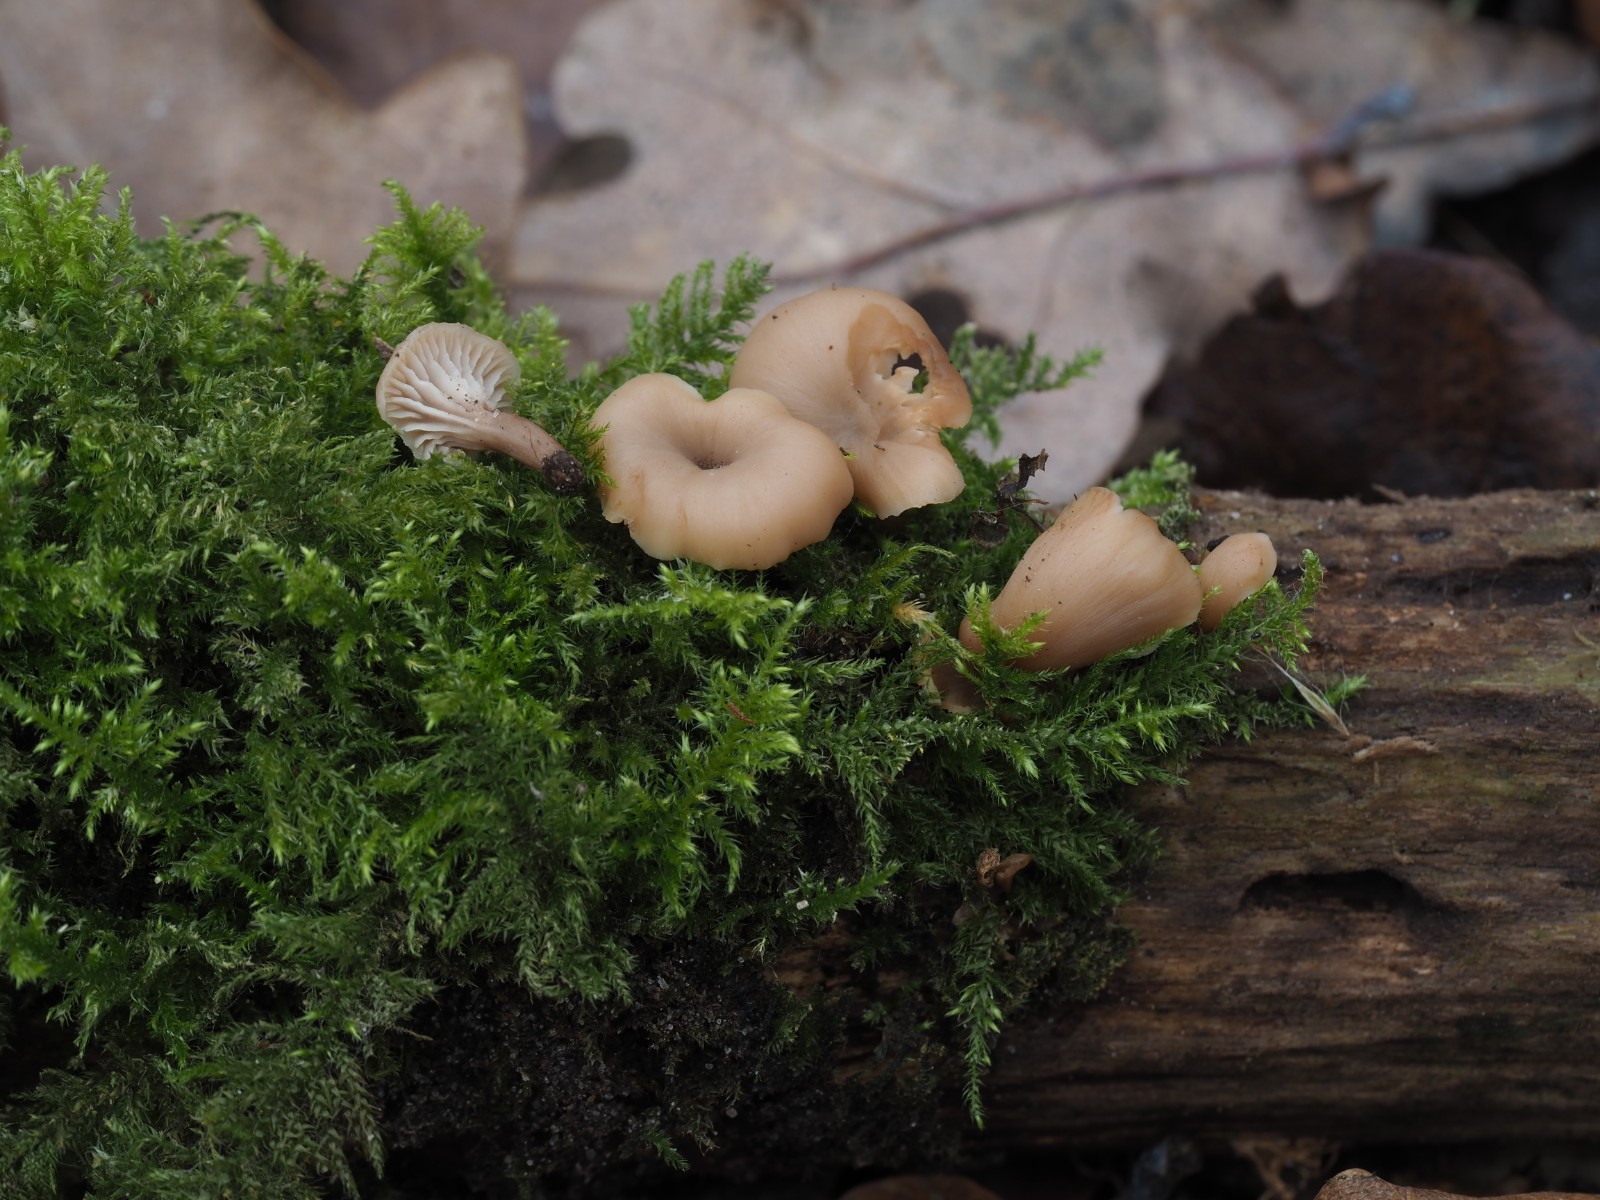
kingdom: Fungi
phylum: Basidiomycota
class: Agaricomycetes
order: Russulales
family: Auriscalpiaceae
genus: Lentinellus
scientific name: Lentinellus flabelliformis
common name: navle-savbladhat
